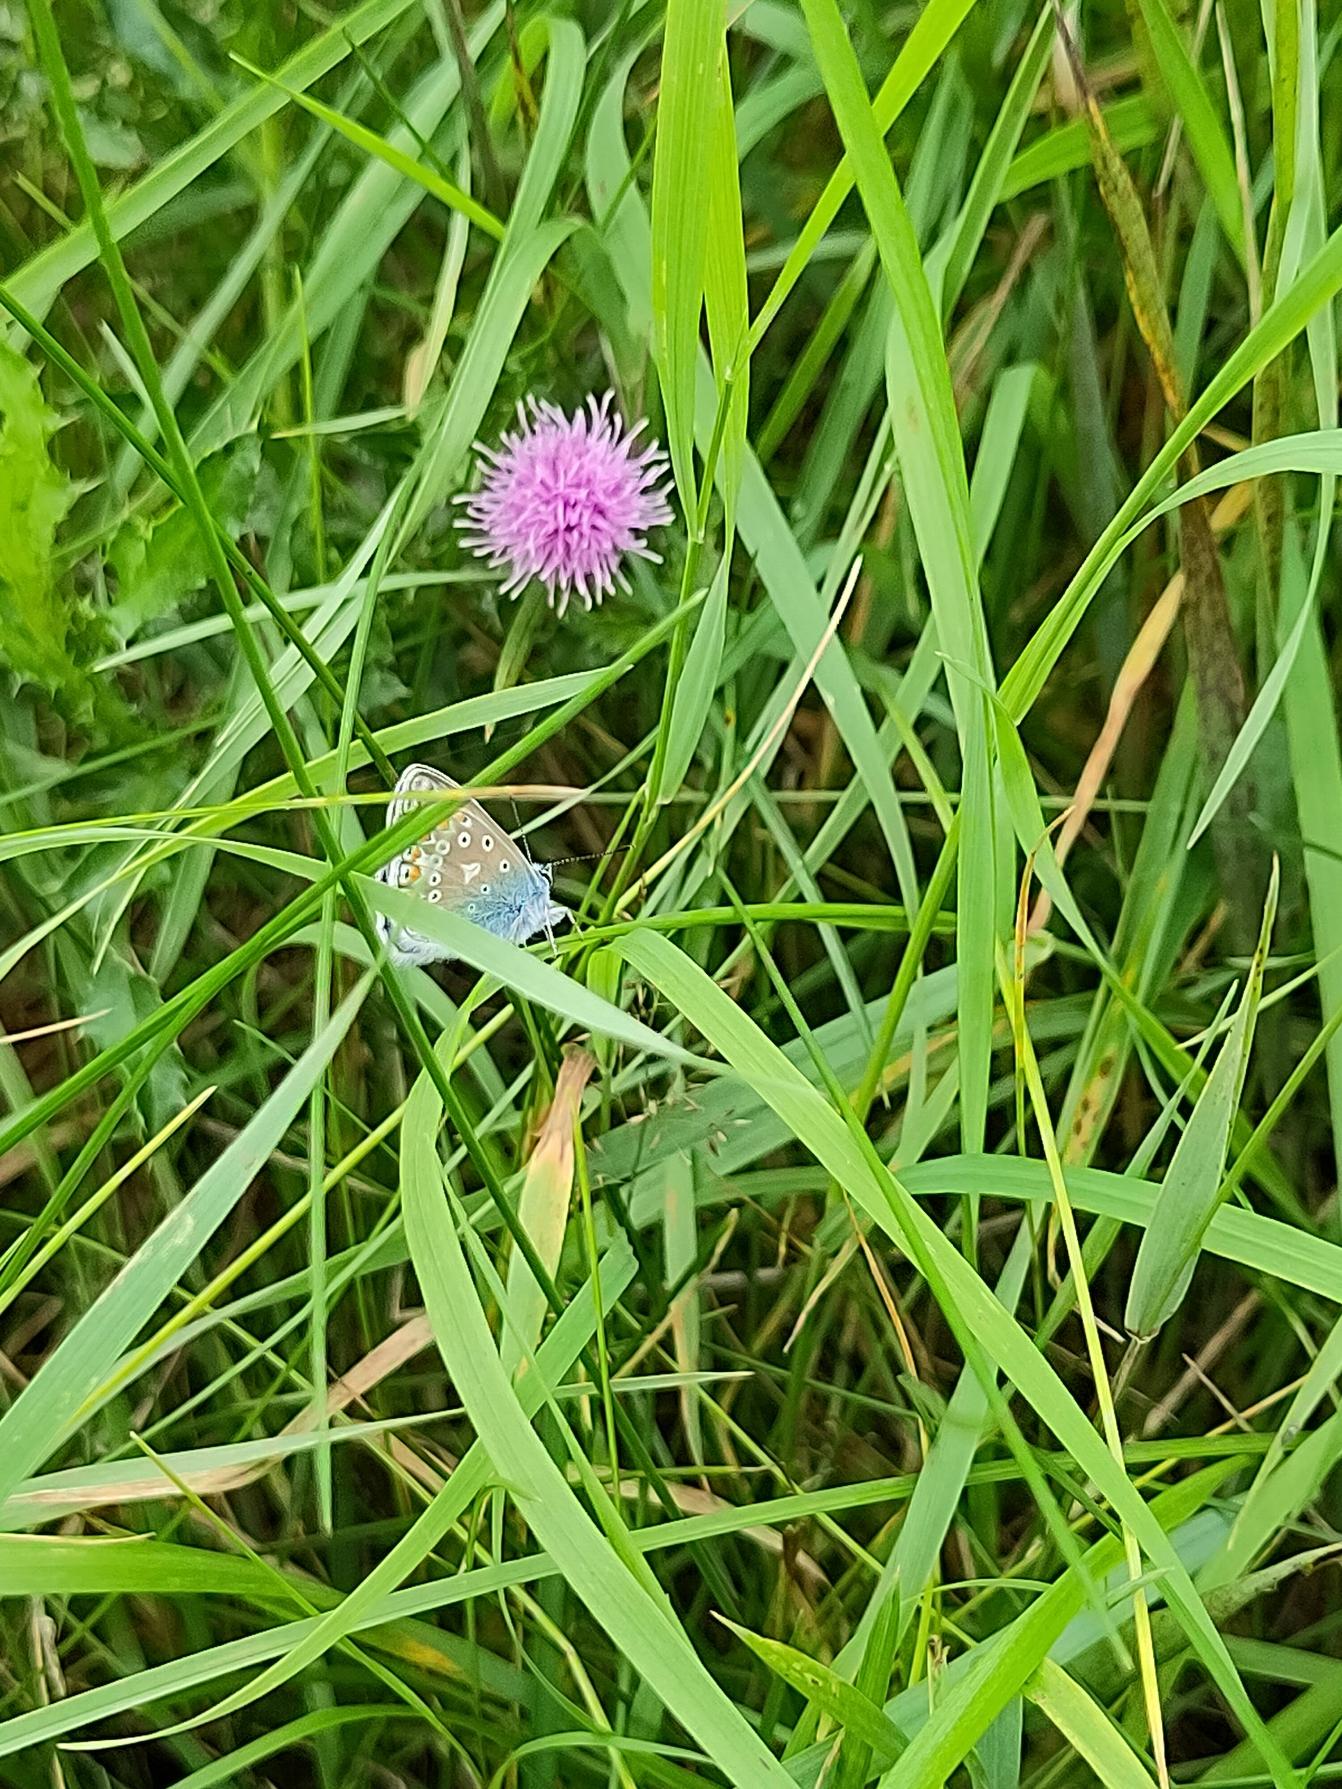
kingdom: Animalia
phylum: Arthropoda
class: Insecta
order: Lepidoptera
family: Lycaenidae
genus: Polyommatus
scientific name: Polyommatus icarus
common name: Almindelig blåfugl
